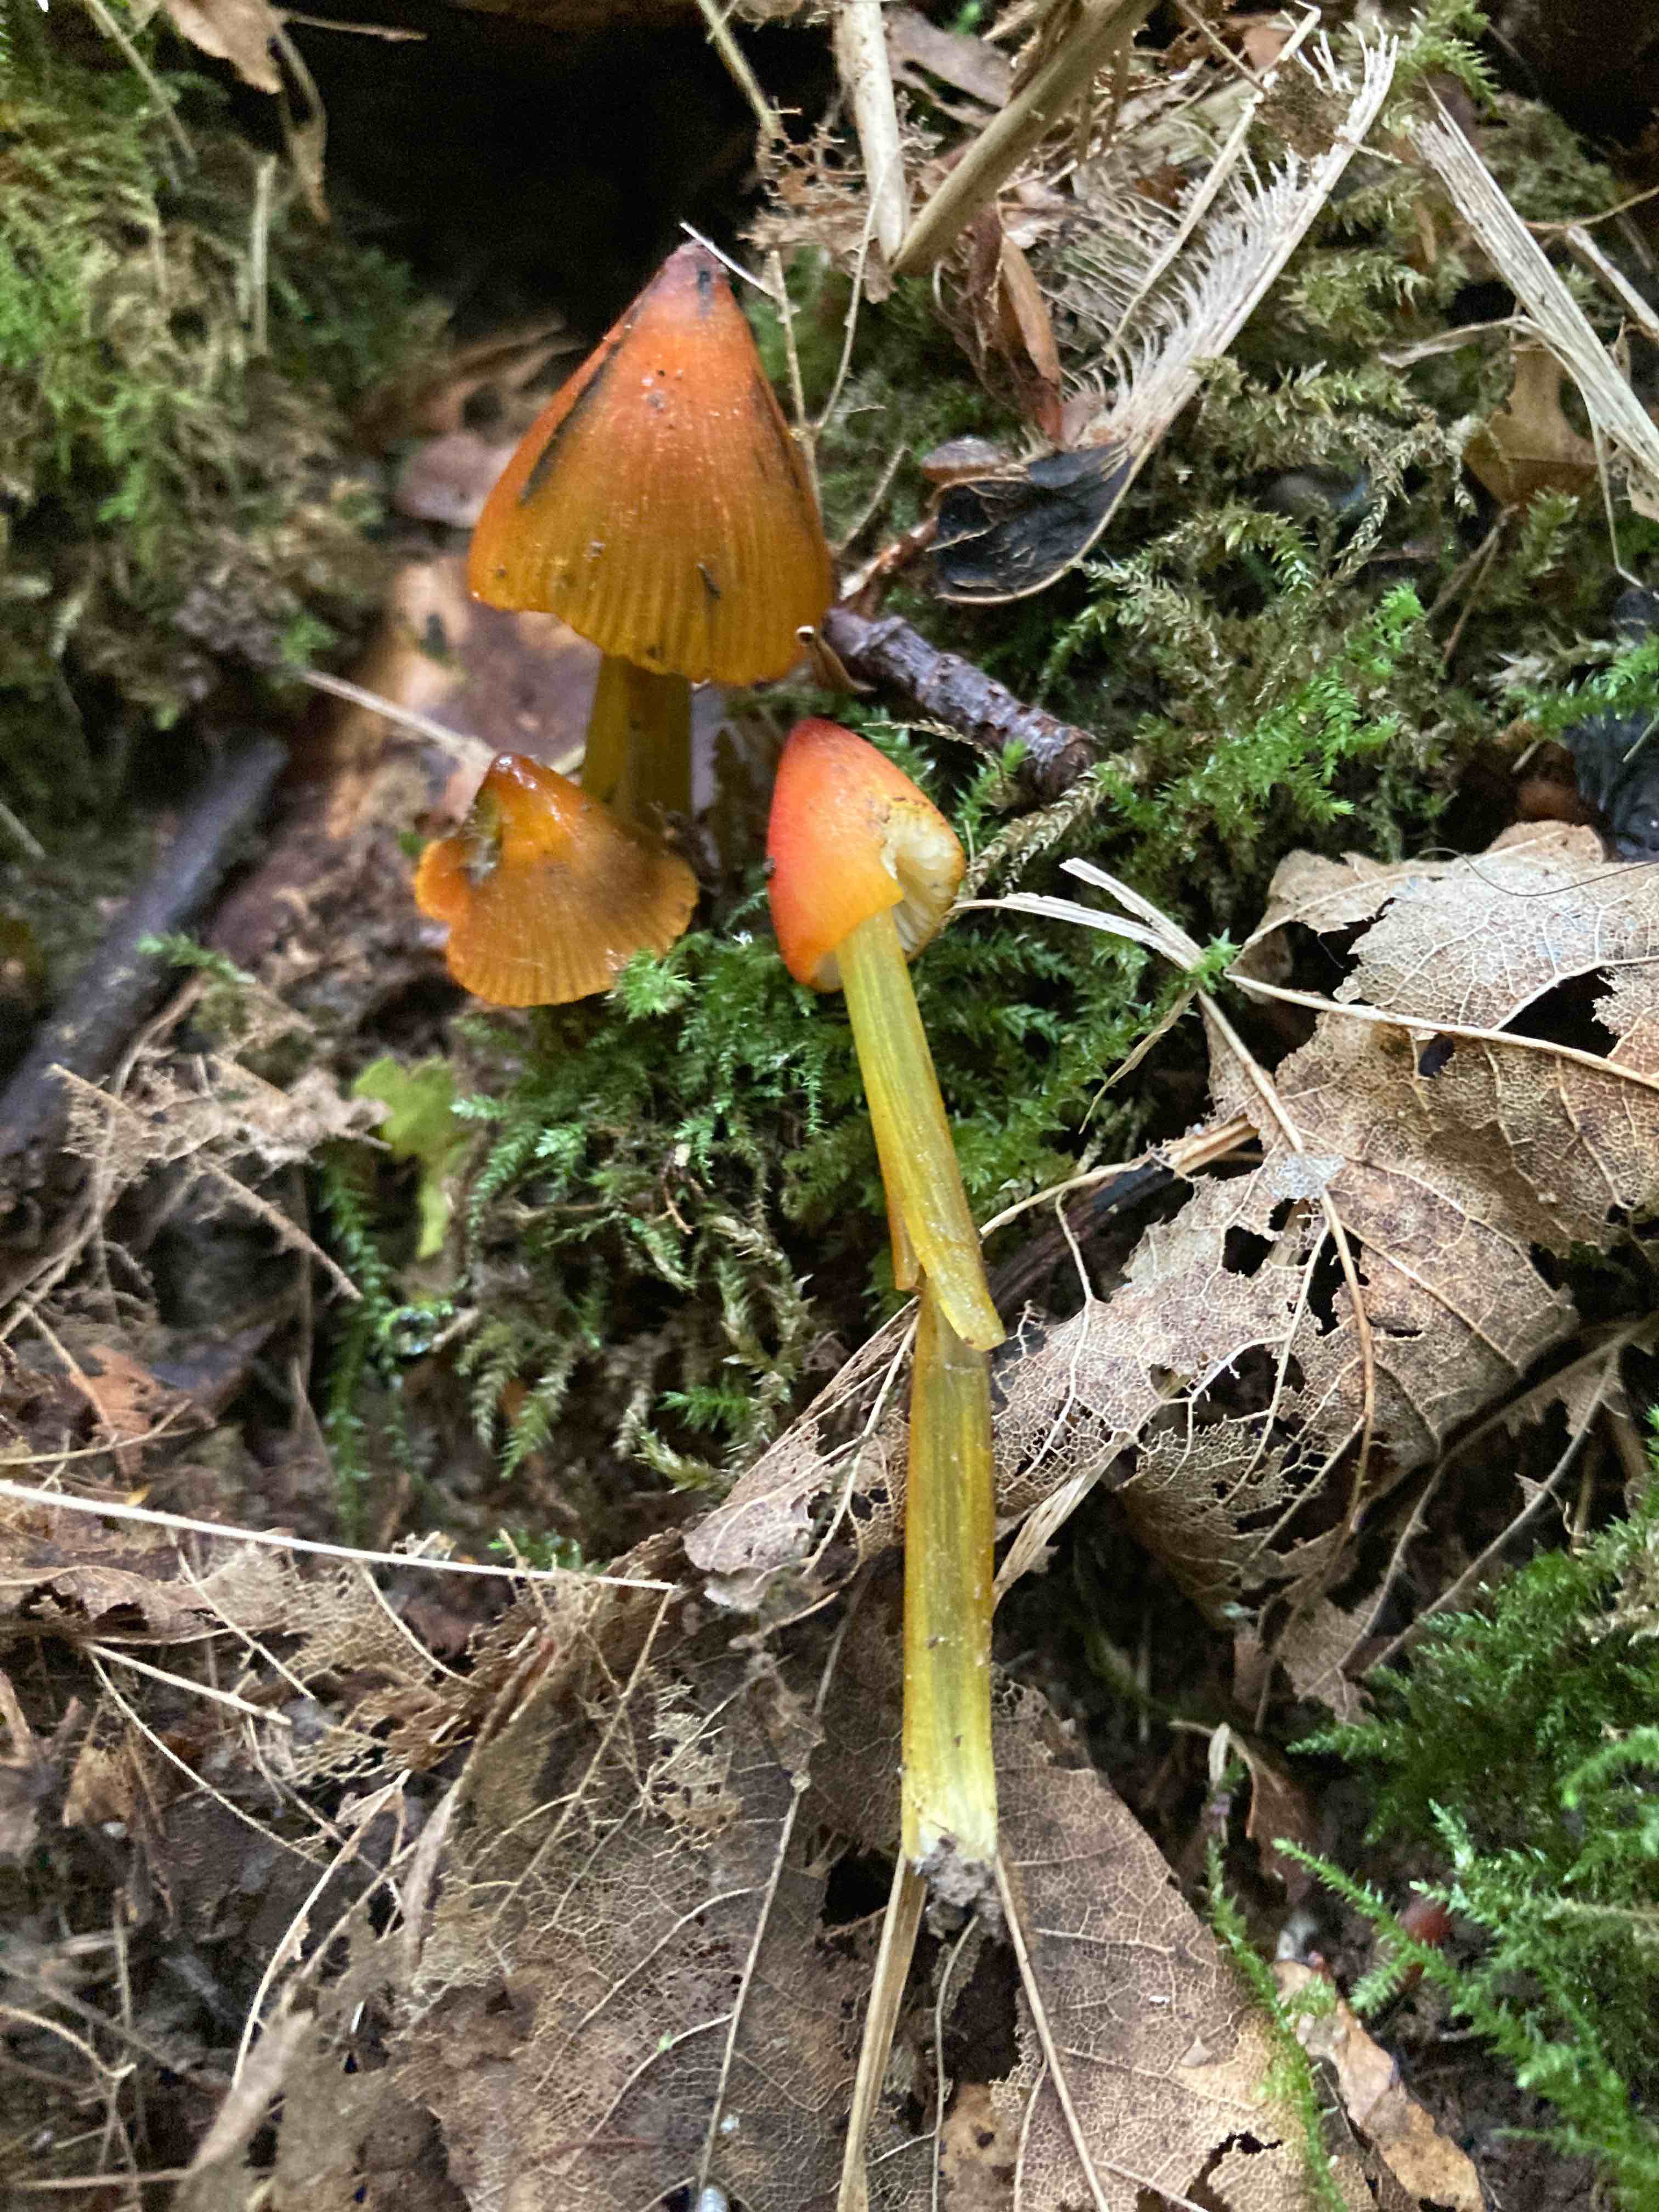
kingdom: Fungi
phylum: Basidiomycota
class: Agaricomycetes
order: Agaricales
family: Hygrophoraceae
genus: Hygrocybe
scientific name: Hygrocybe conica
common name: kegle-vokshat
